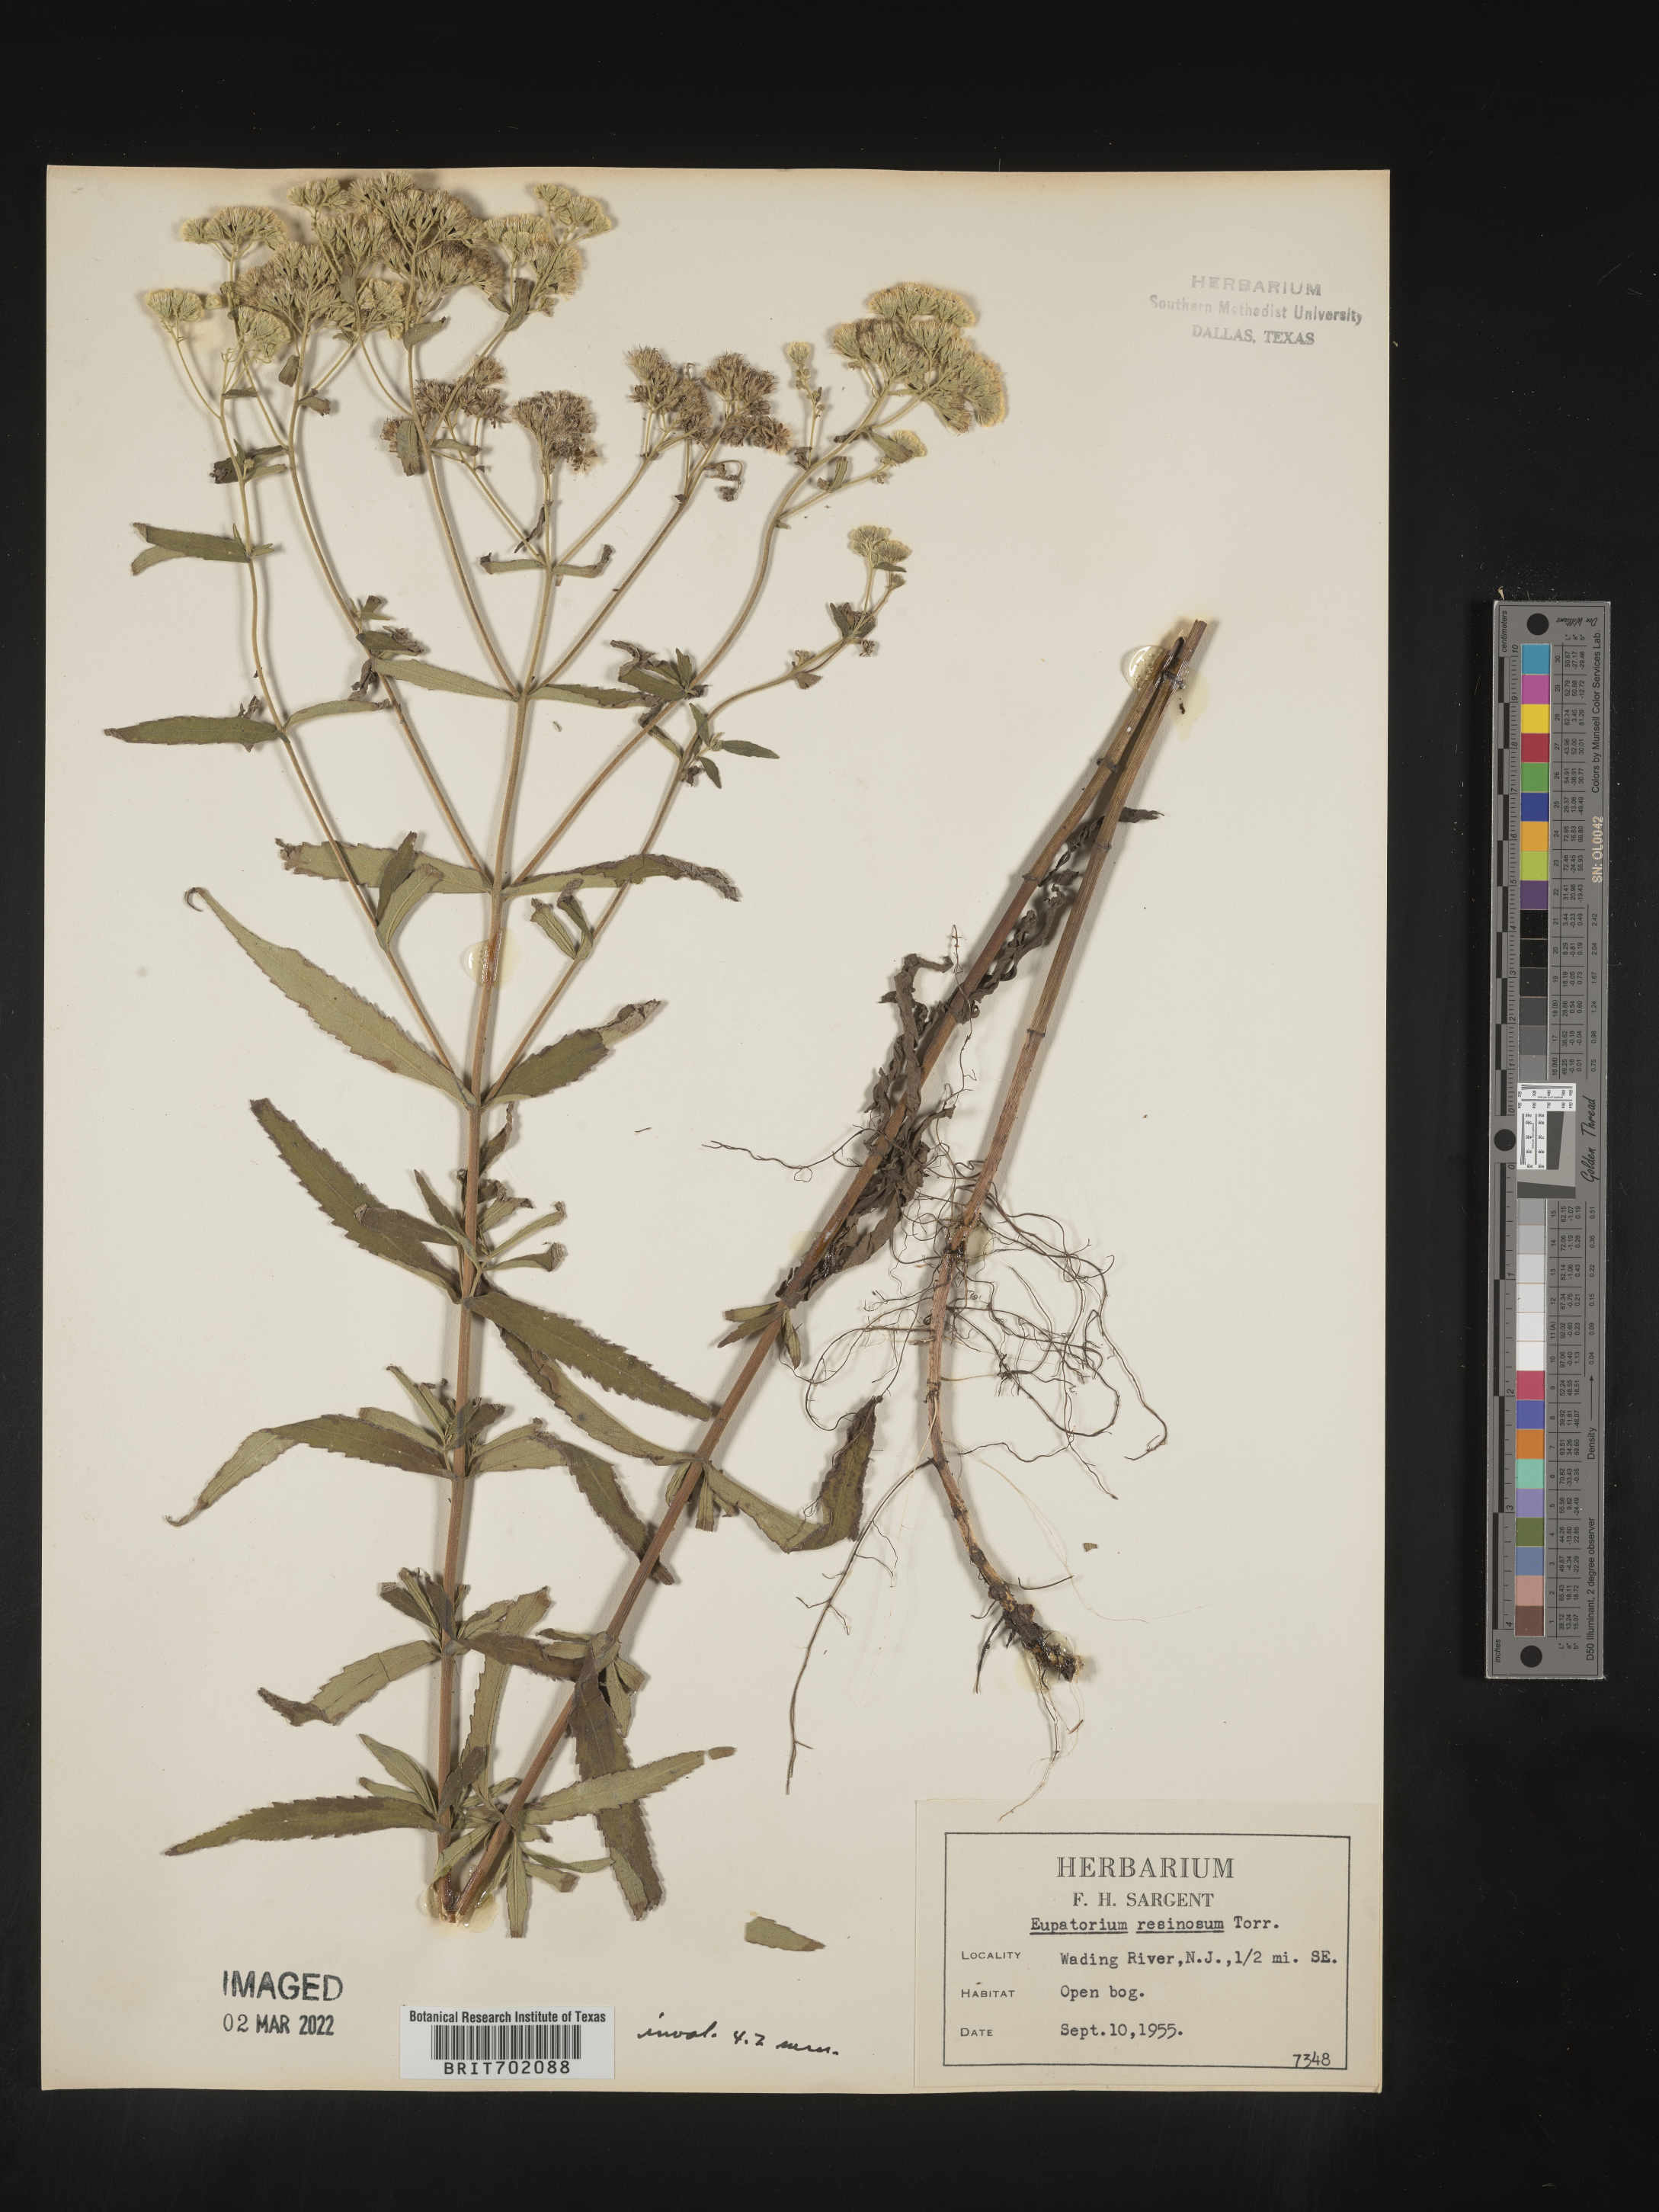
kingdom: Plantae
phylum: Tracheophyta
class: Magnoliopsida
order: Asterales
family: Asteraceae
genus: Eupatorium
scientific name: Eupatorium resinosum
